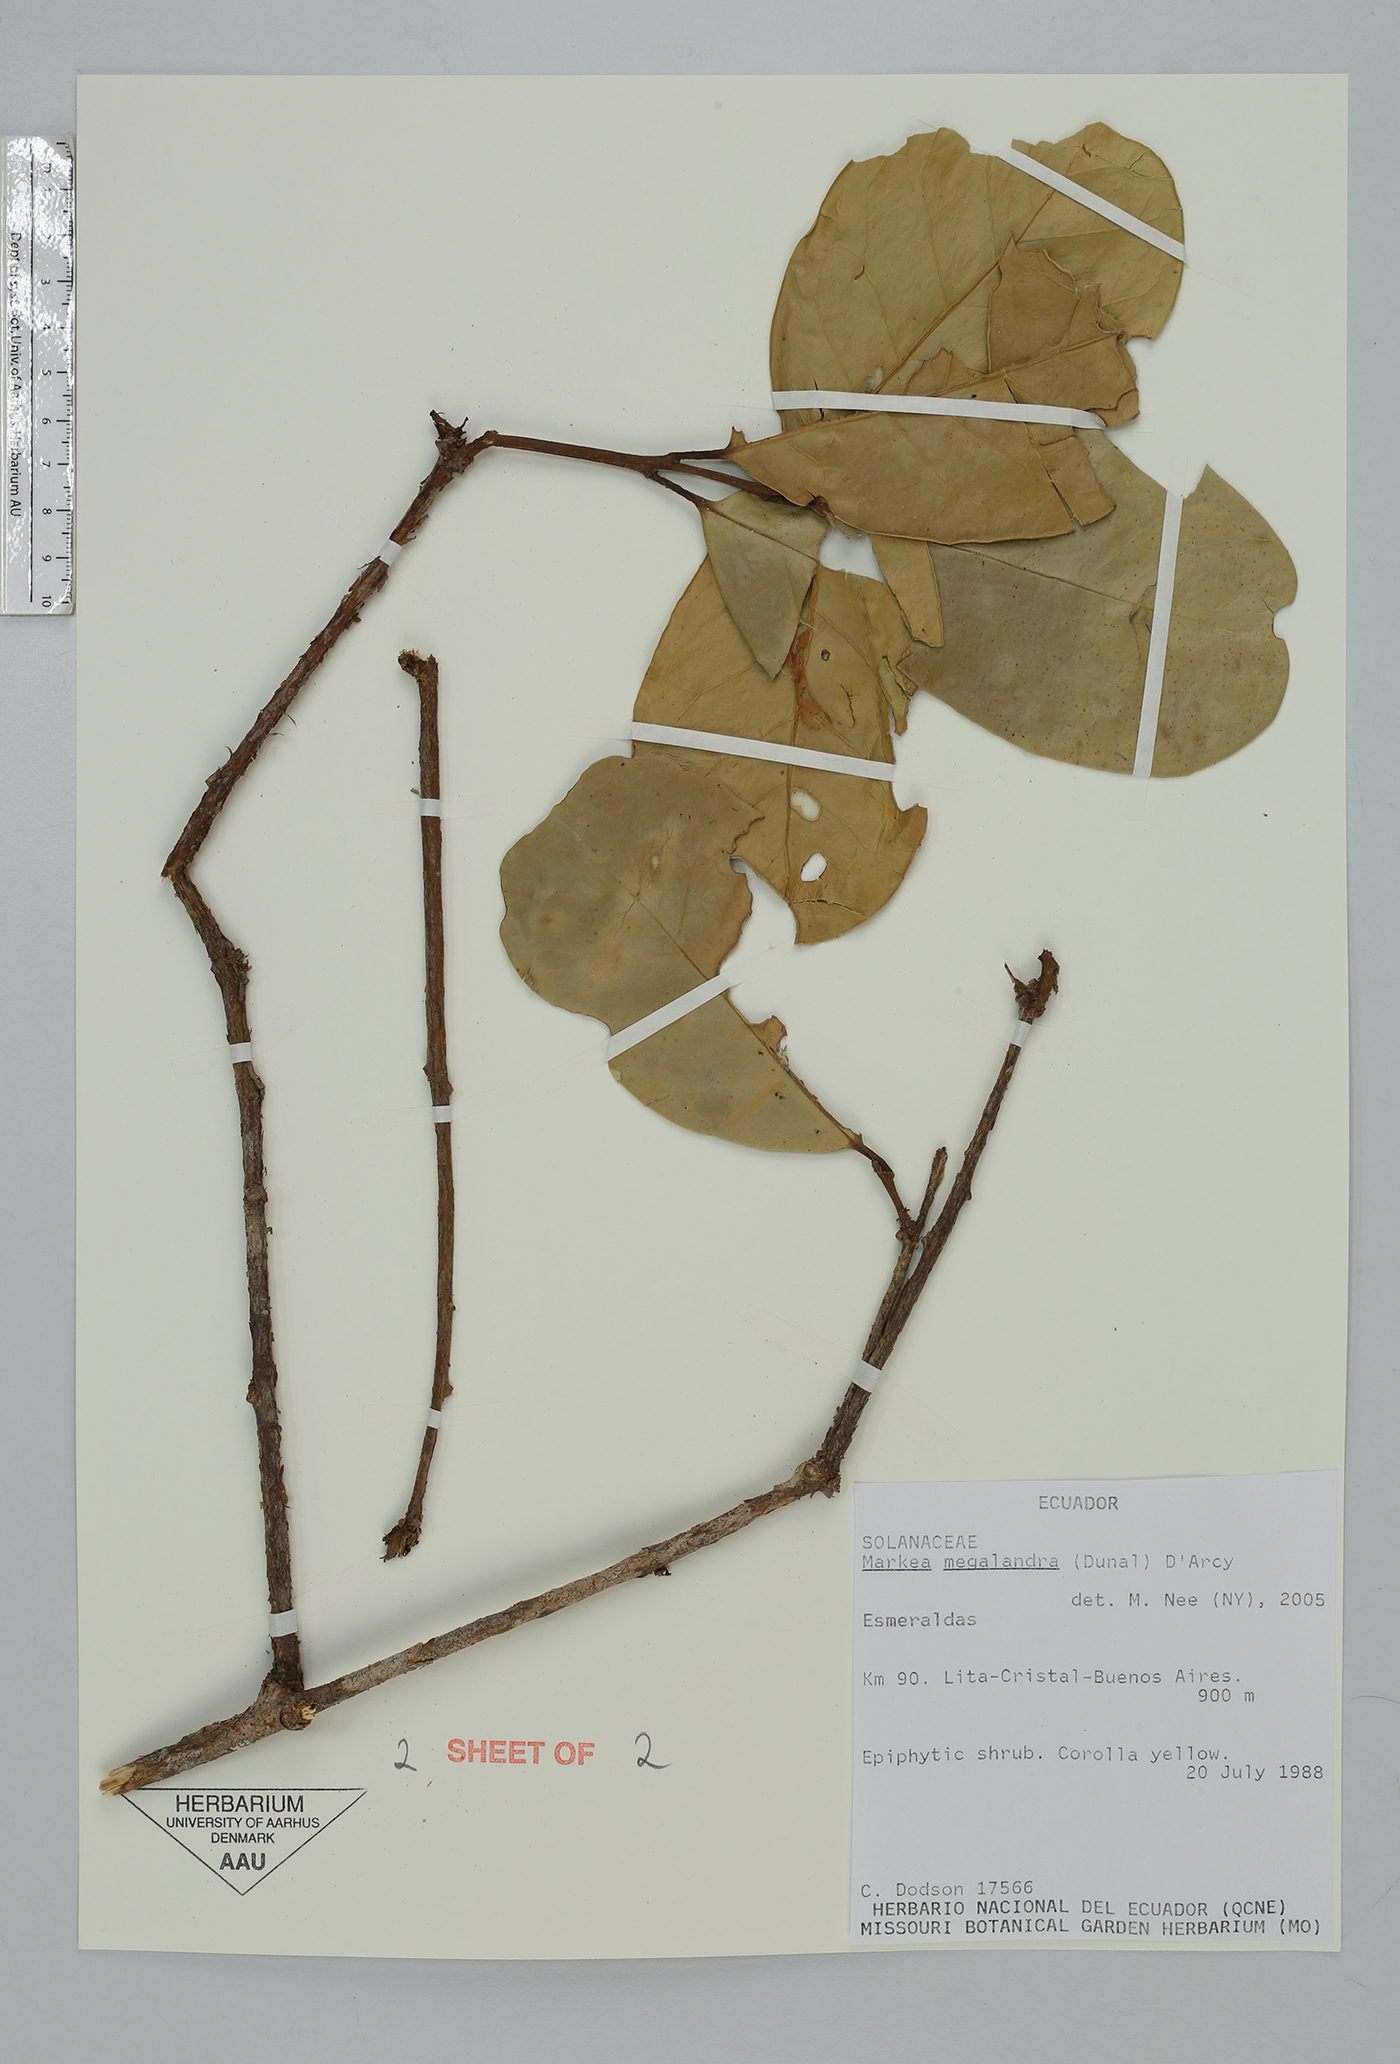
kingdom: Plantae
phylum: Tracheophyta
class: Magnoliopsida
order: Solanales
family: Solanaceae
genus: Schultesianthus
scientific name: Schultesianthus leucanthus
